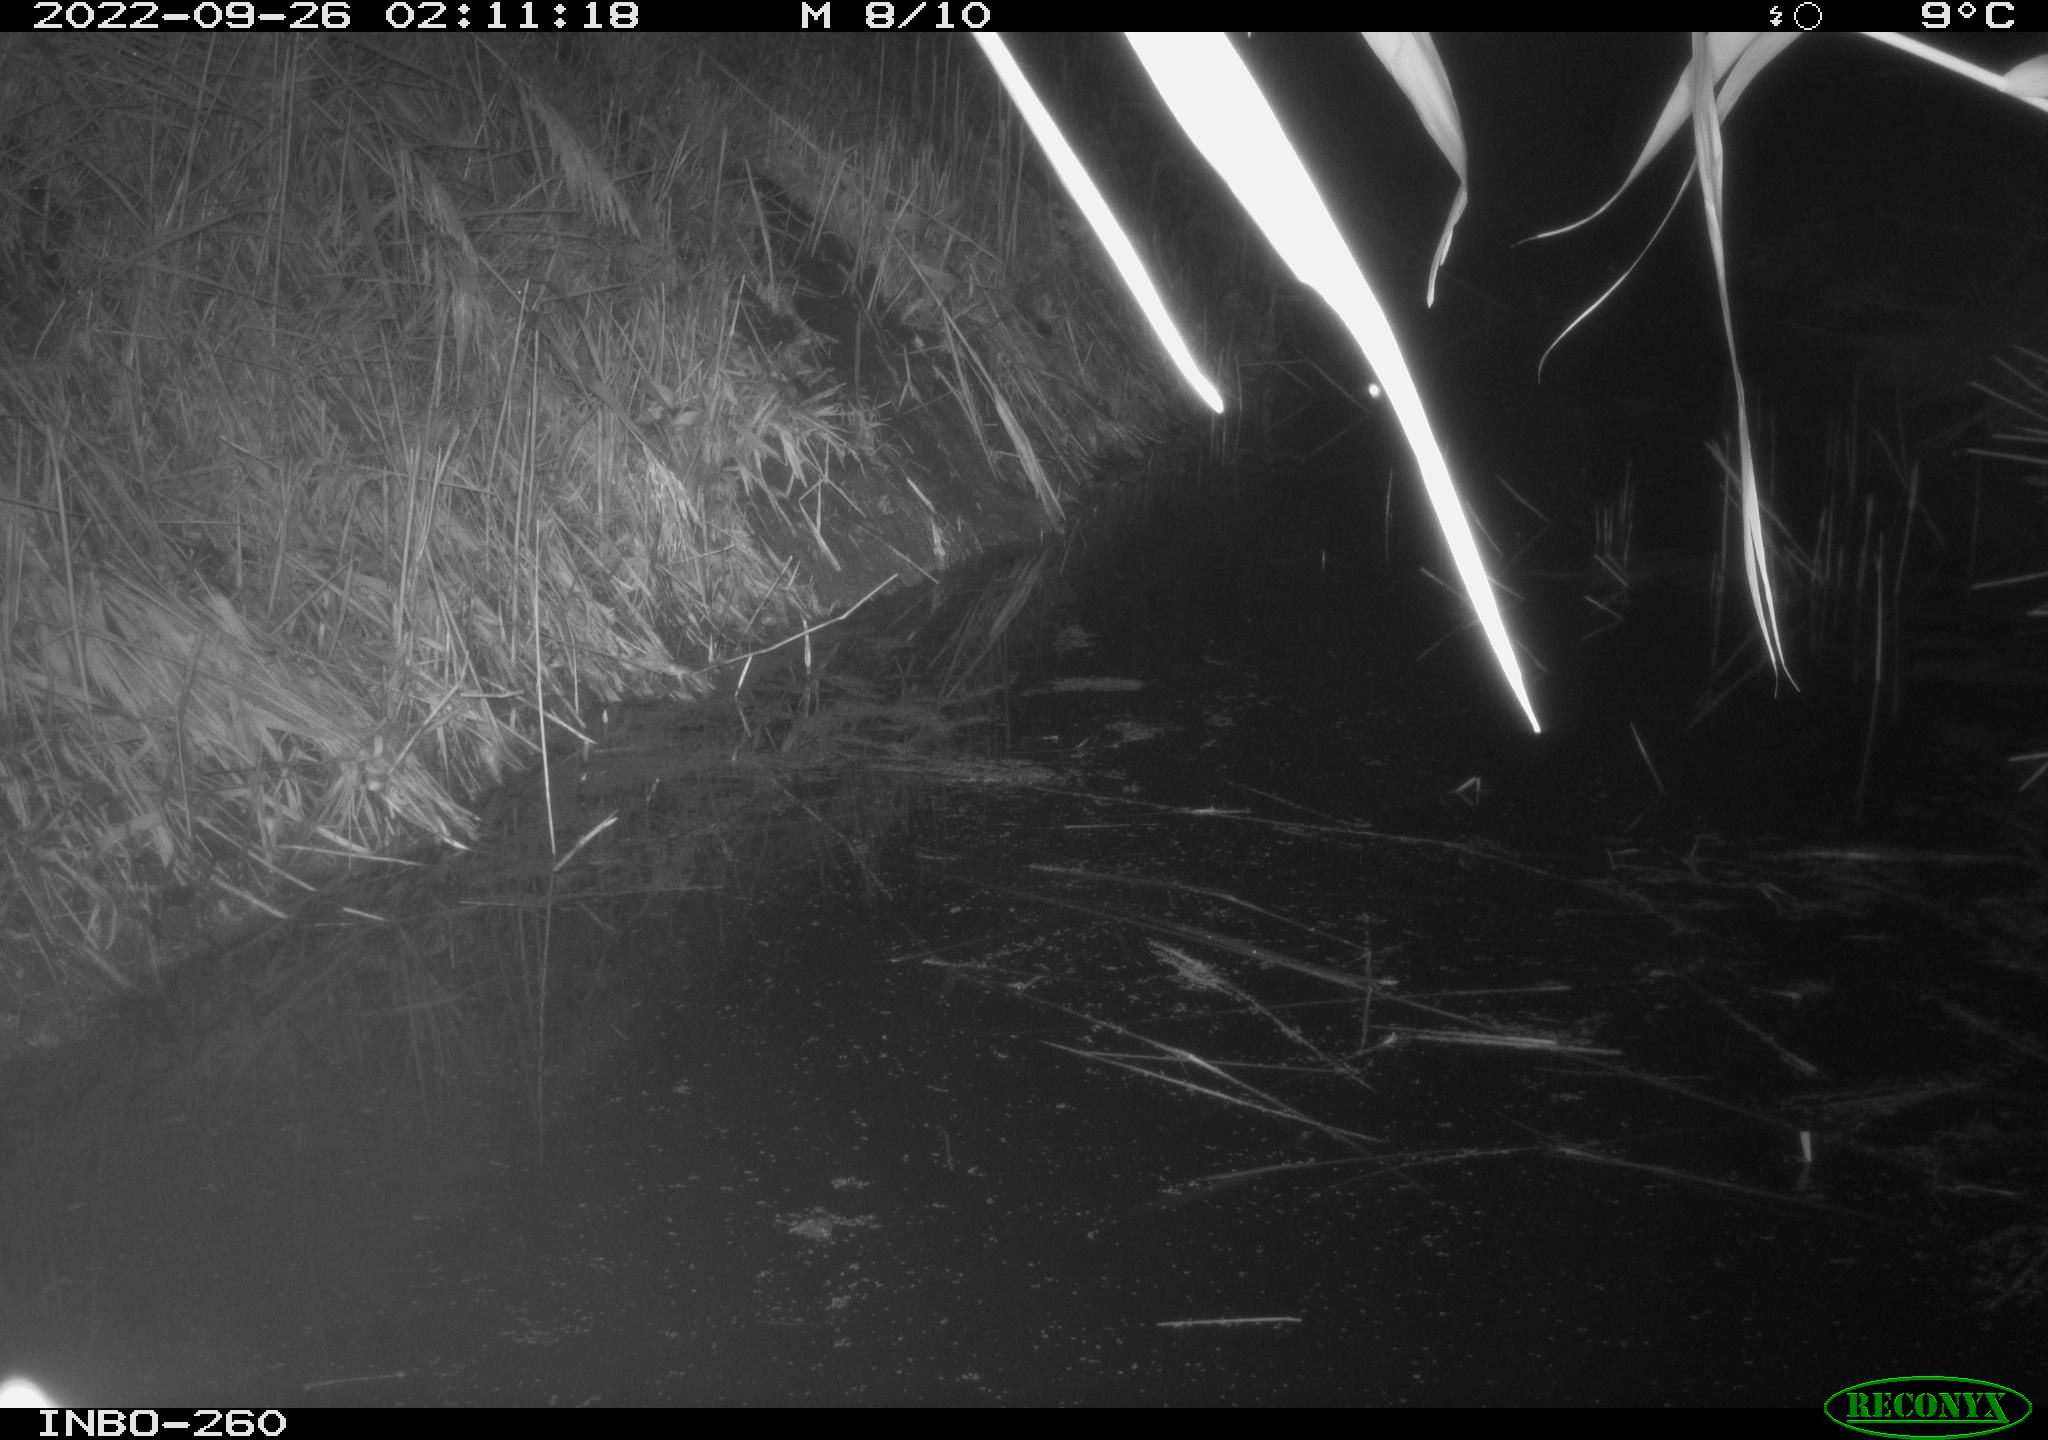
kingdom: Animalia
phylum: Chordata
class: Mammalia
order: Rodentia
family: Muridae
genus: Rattus
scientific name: Rattus norvegicus
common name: Brown rat
